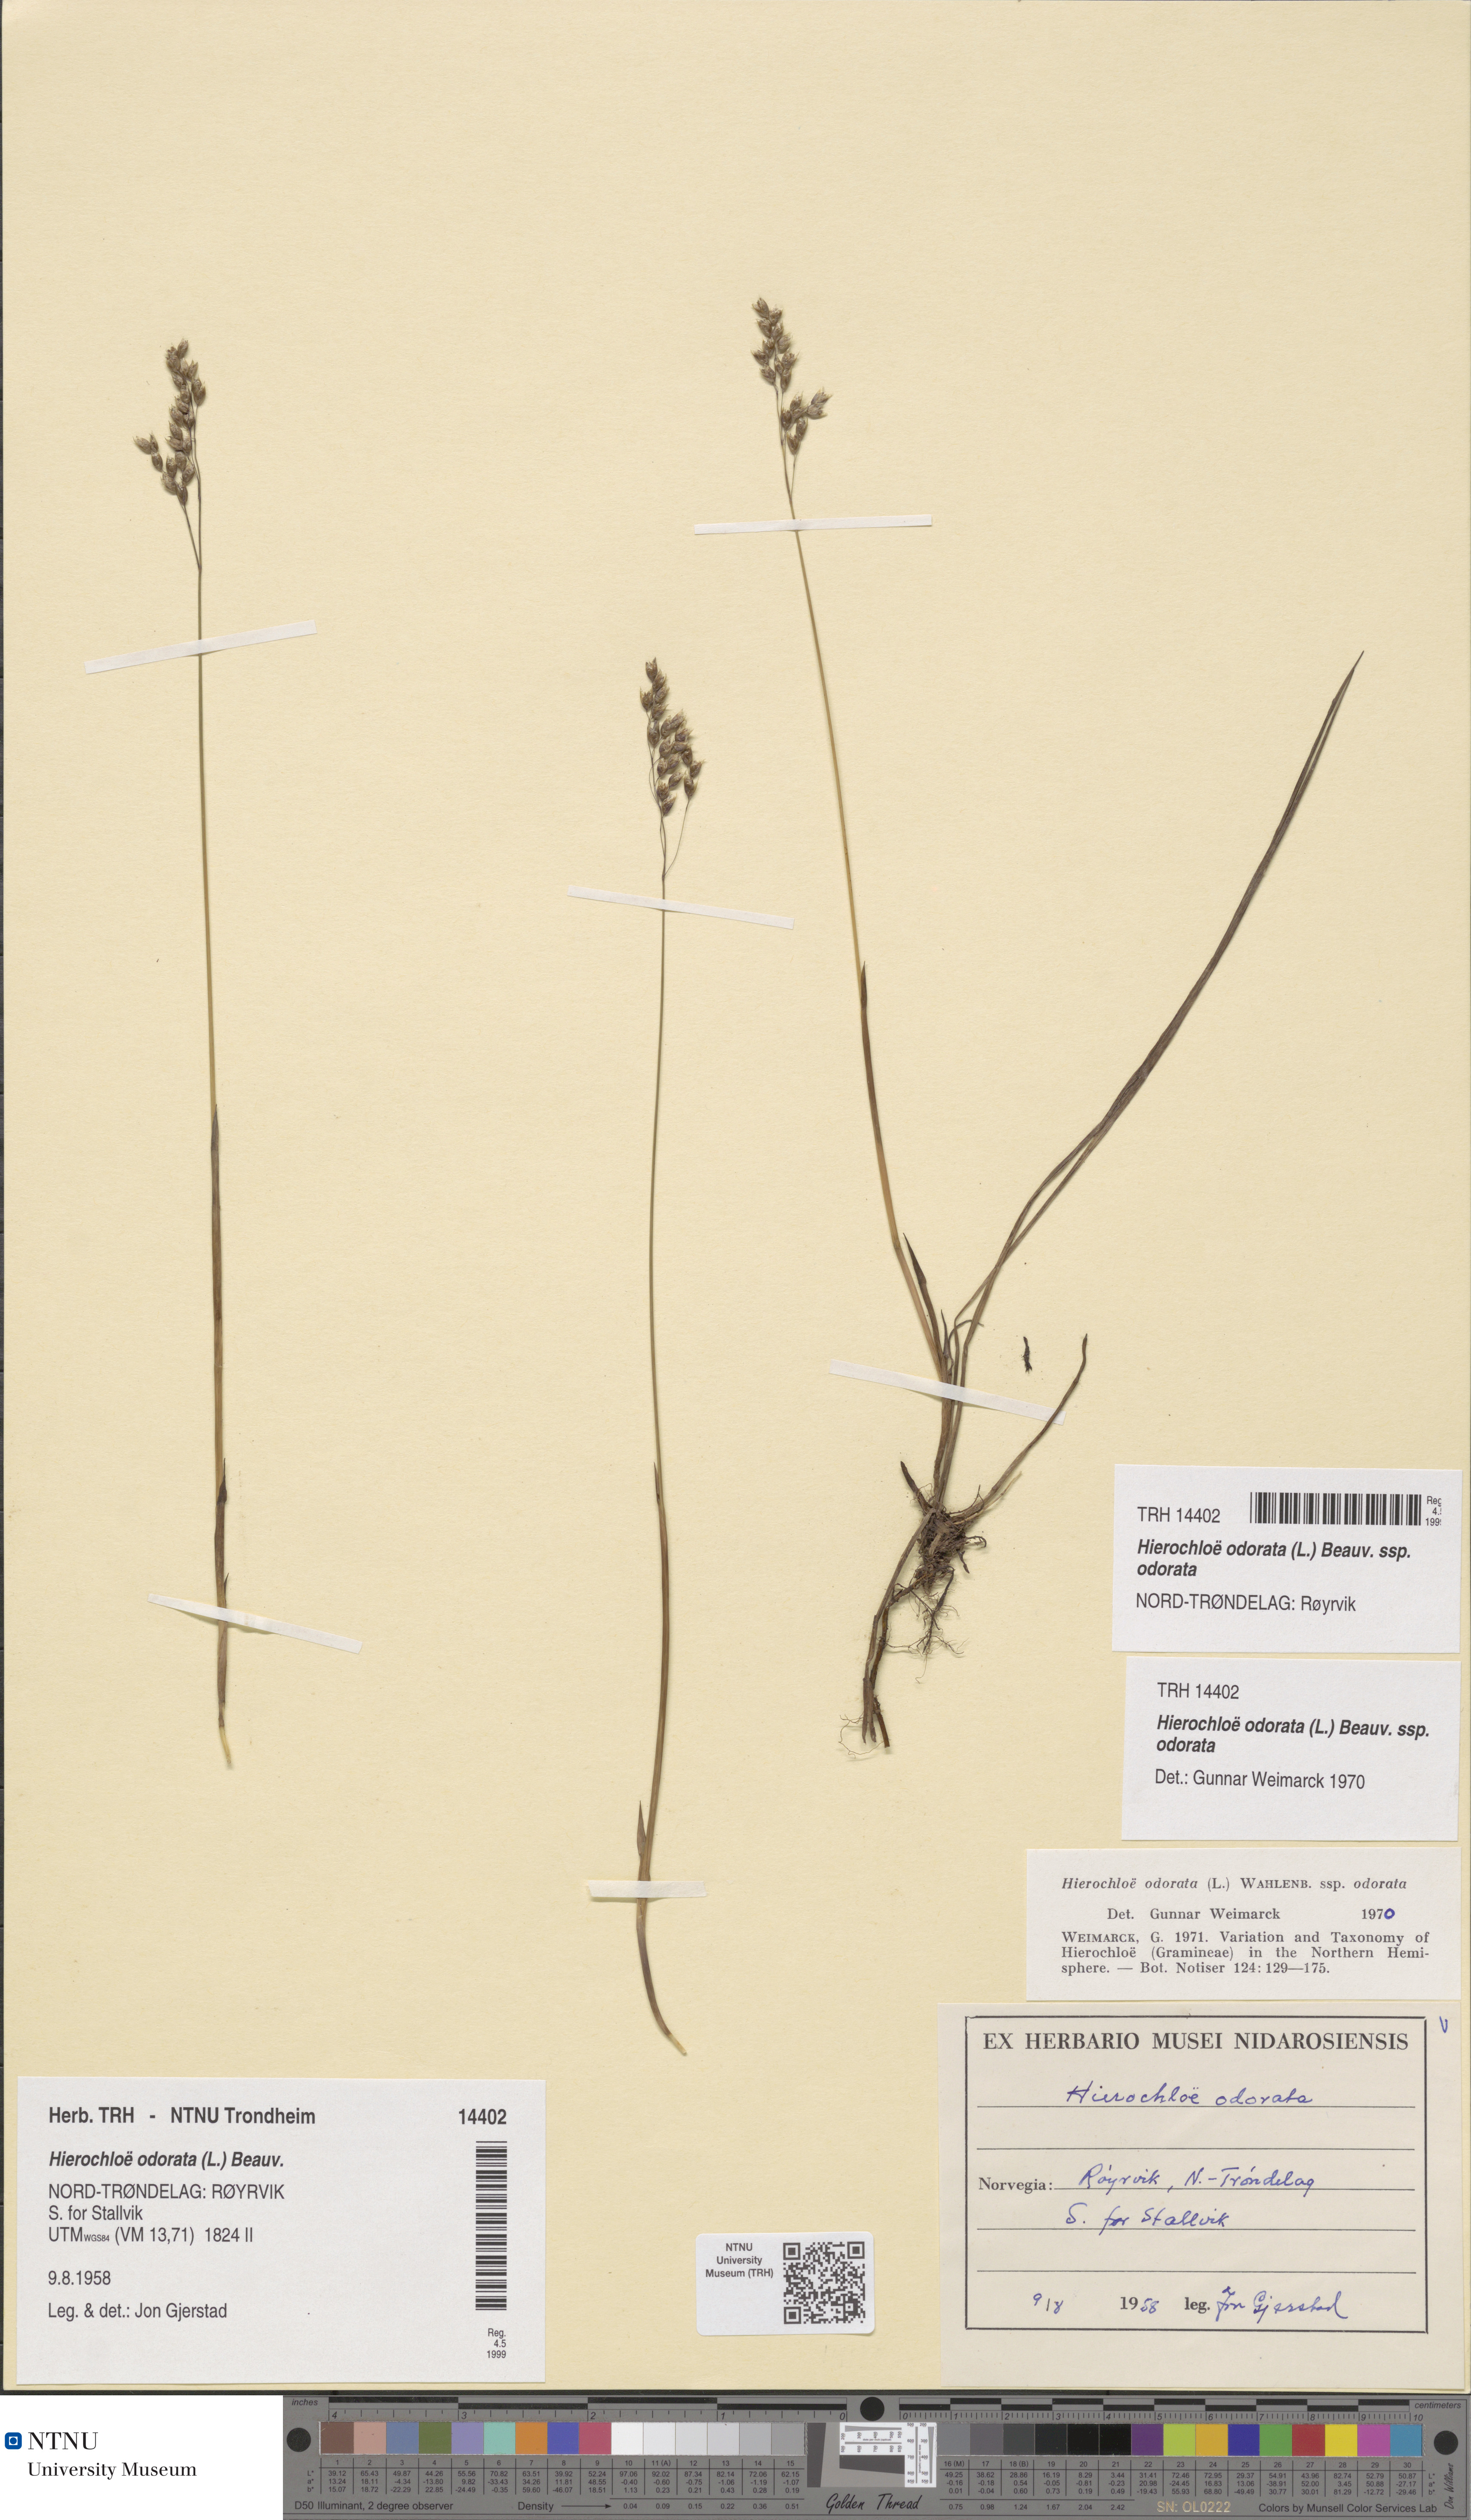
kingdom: Plantae
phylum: Tracheophyta
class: Liliopsida
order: Poales
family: Poaceae
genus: Anthoxanthum
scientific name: Anthoxanthum nitens
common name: Holy grass
